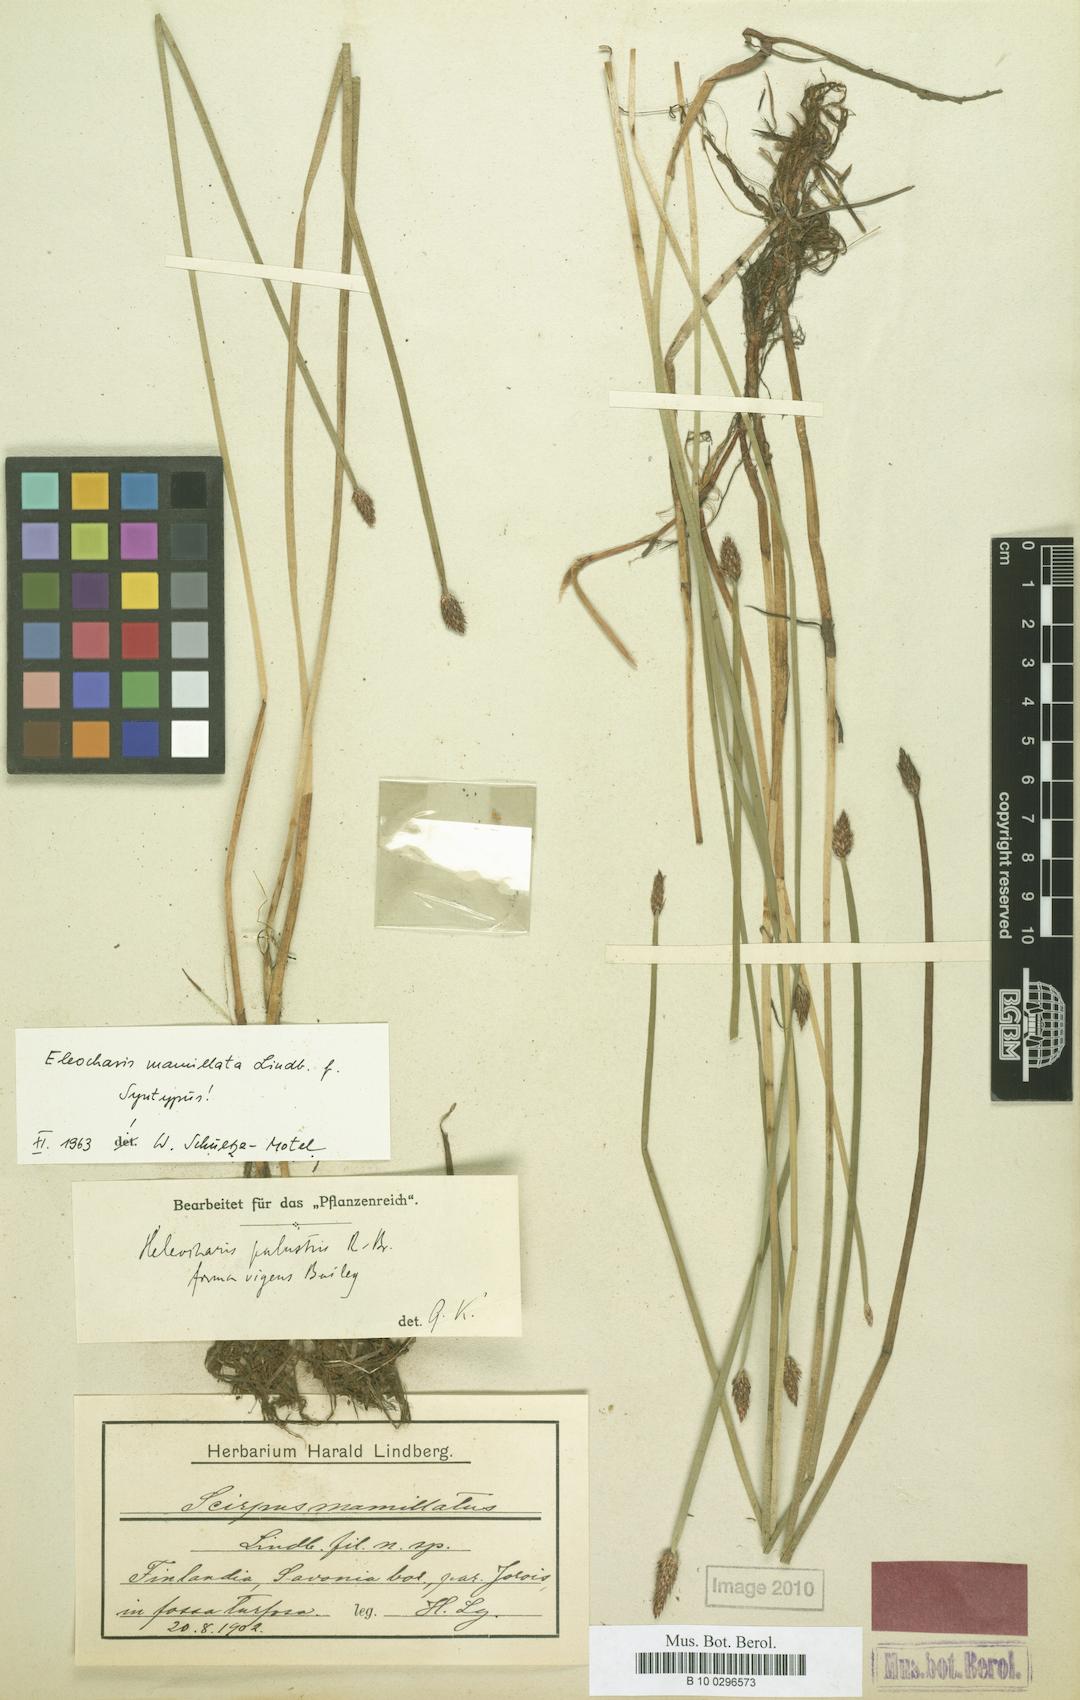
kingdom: Plantae
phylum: Tracheophyta
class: Liliopsida
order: Poales
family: Cyperaceae
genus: Eleocharis
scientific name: Eleocharis mamillata
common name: Northern spike-rush
